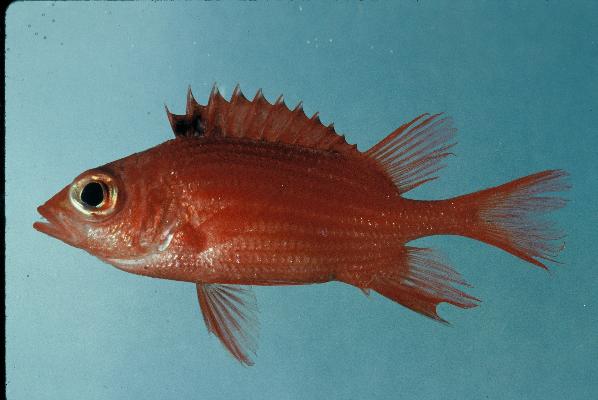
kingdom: Animalia
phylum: Chordata
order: Beryciformes
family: Holocentridae
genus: Sargocentron
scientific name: Sargocentron tiereoides
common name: Pink squirrelfish
